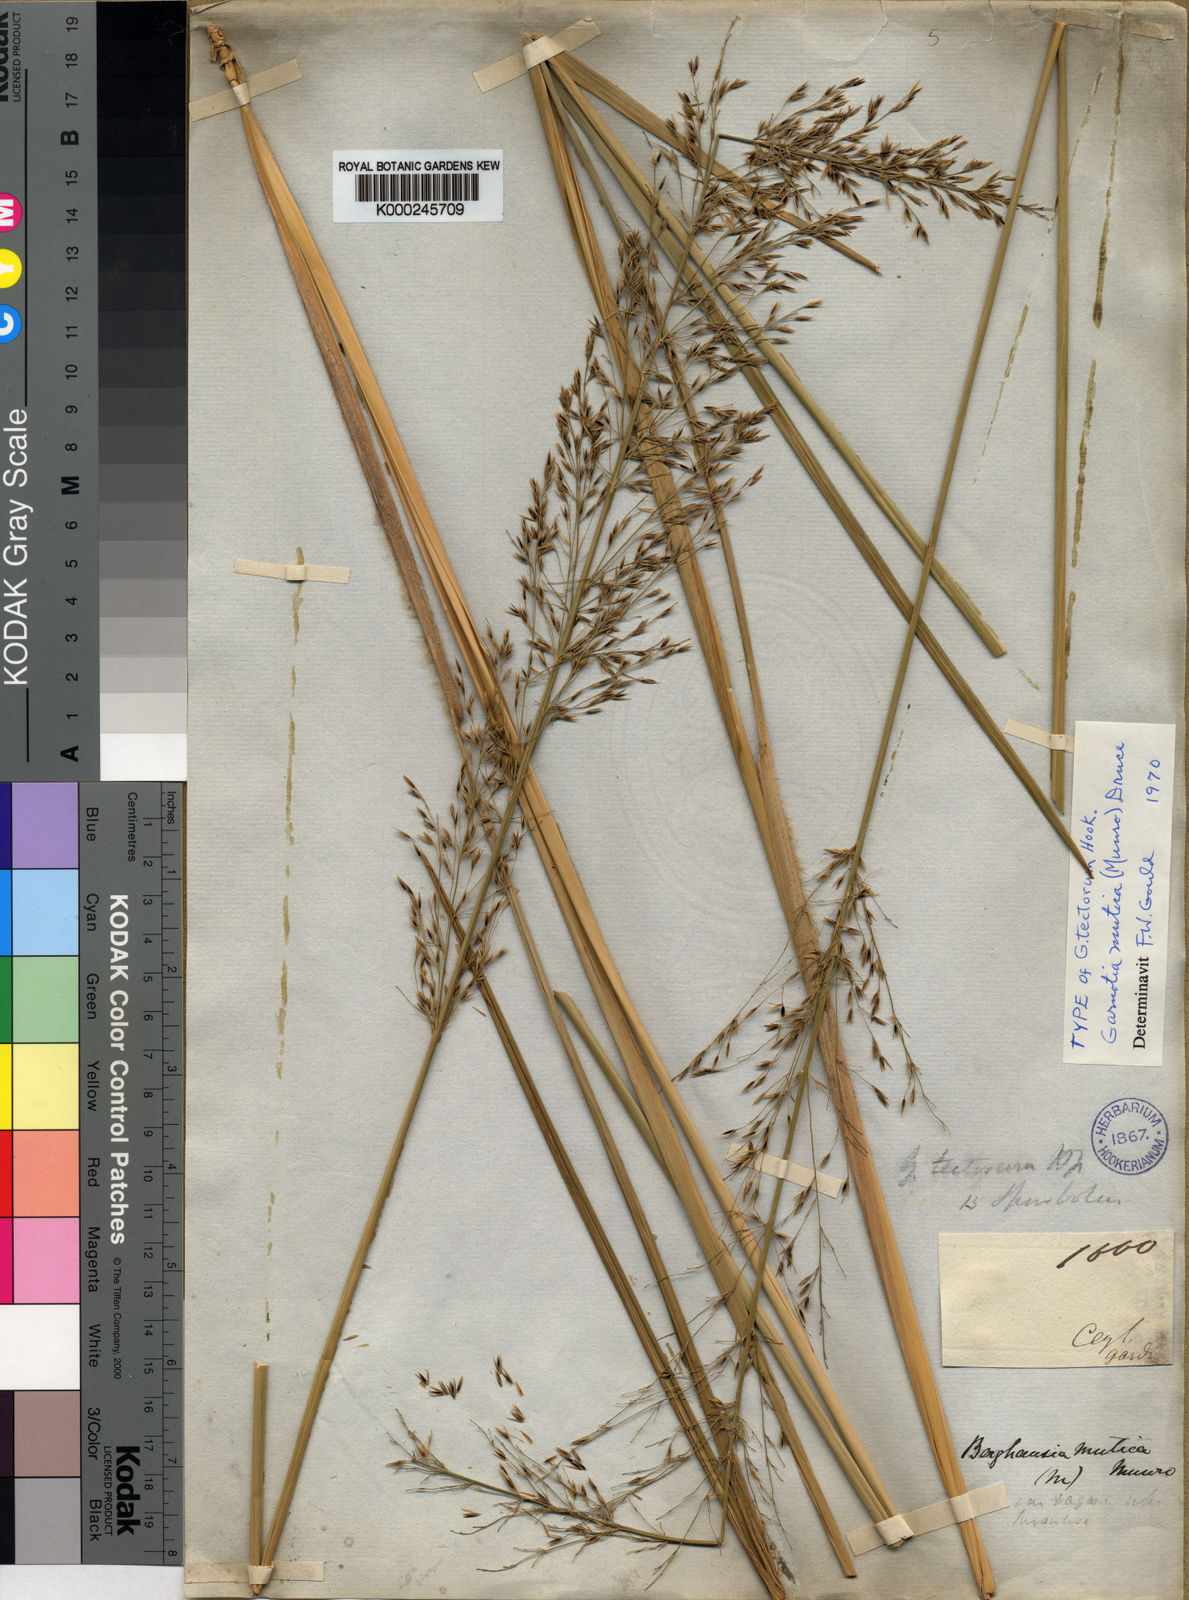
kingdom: Plantae
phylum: Tracheophyta
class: Liliopsida
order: Poales
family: Poaceae
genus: Garnotia
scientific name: Garnotia patula
